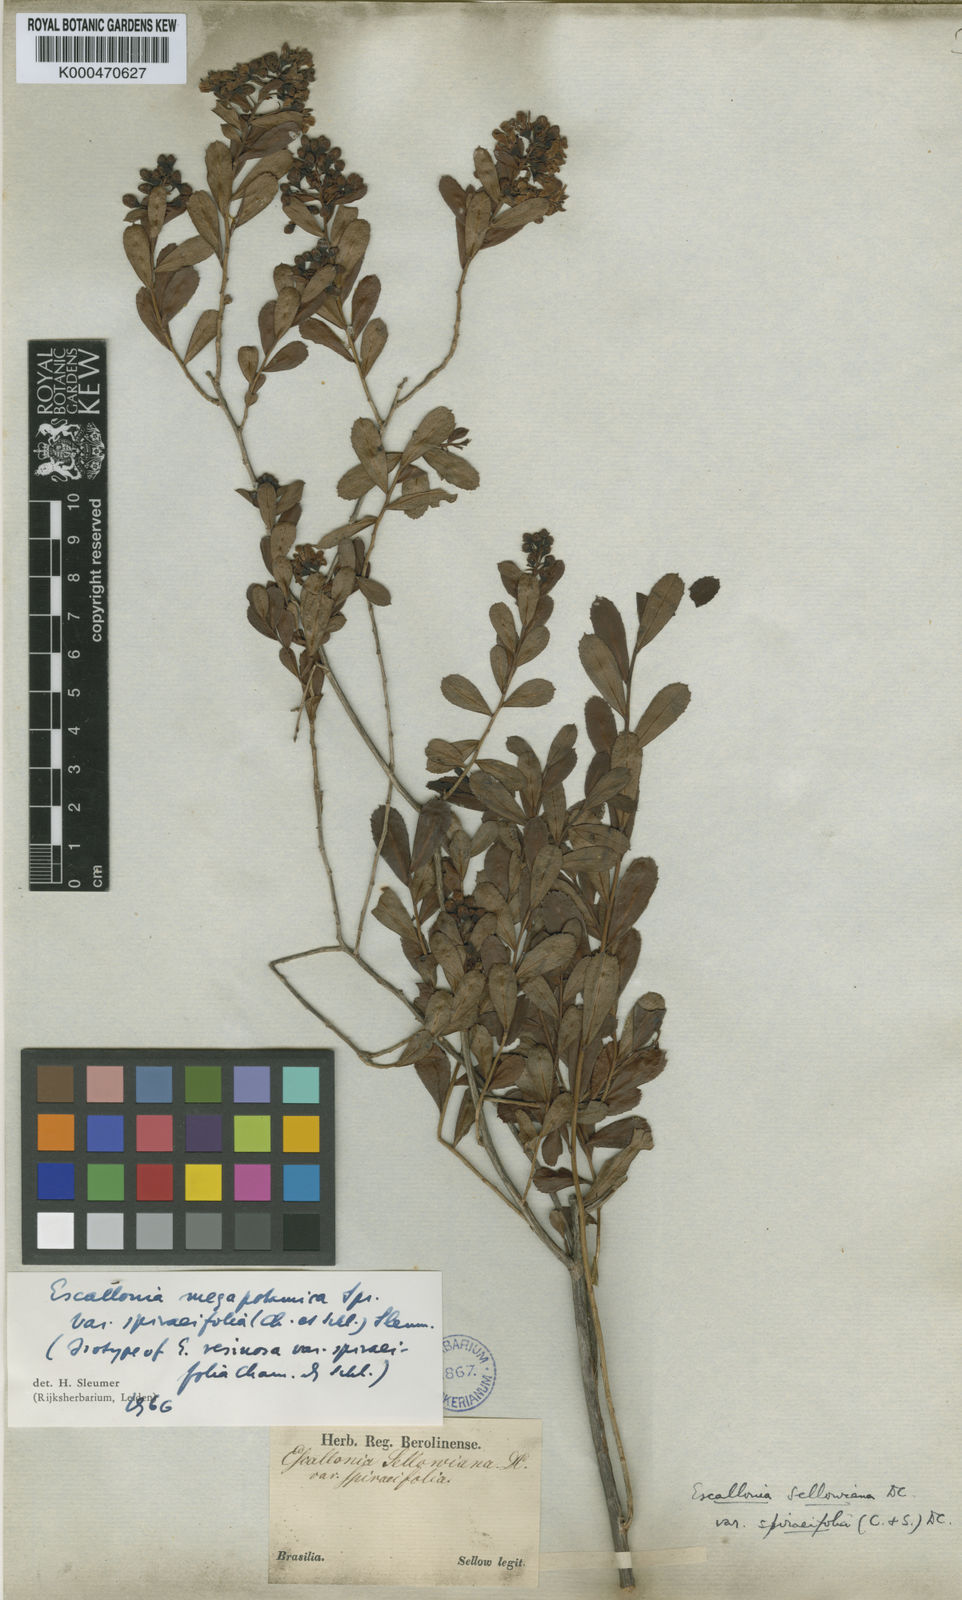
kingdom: Plantae
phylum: Tracheophyta
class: Magnoliopsida
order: Escalloniales
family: Escalloniaceae
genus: Escallonia
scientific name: Escallonia megapotamica
